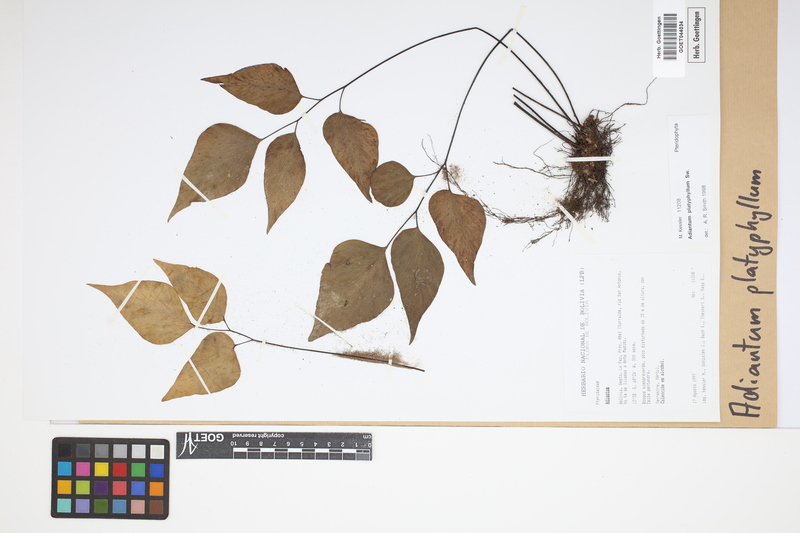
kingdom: Plantae
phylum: Tracheophyta
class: Polypodiopsida
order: Polypodiales
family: Pteridaceae
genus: Adiantum
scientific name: Adiantum platyphyllum
